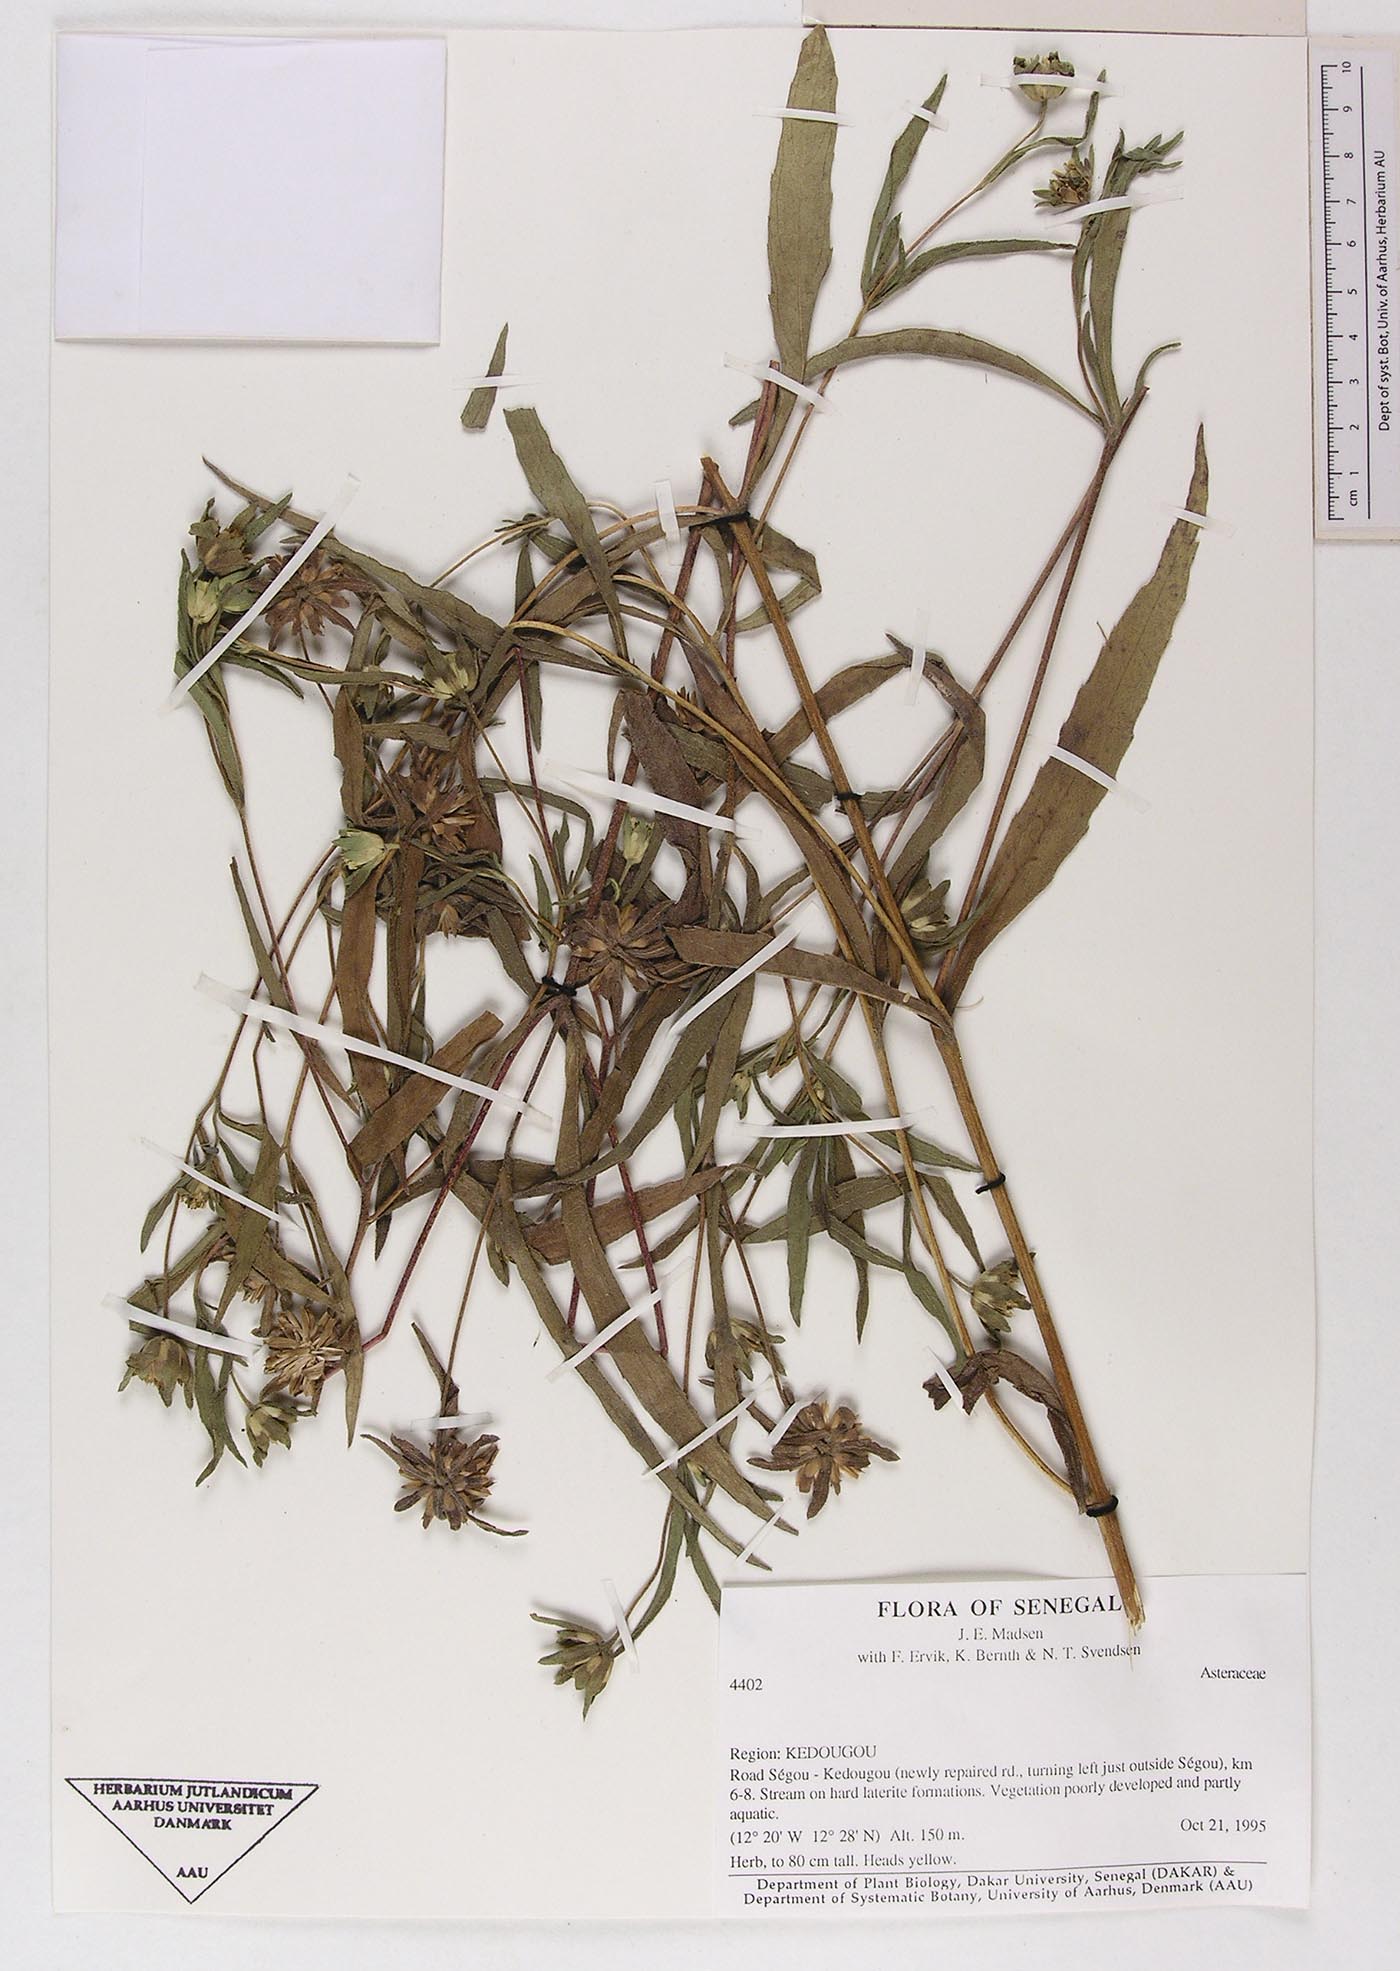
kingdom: Plantae
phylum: Tracheophyta
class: Magnoliopsida
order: Asterales
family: Asteraceae
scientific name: Asteraceae
